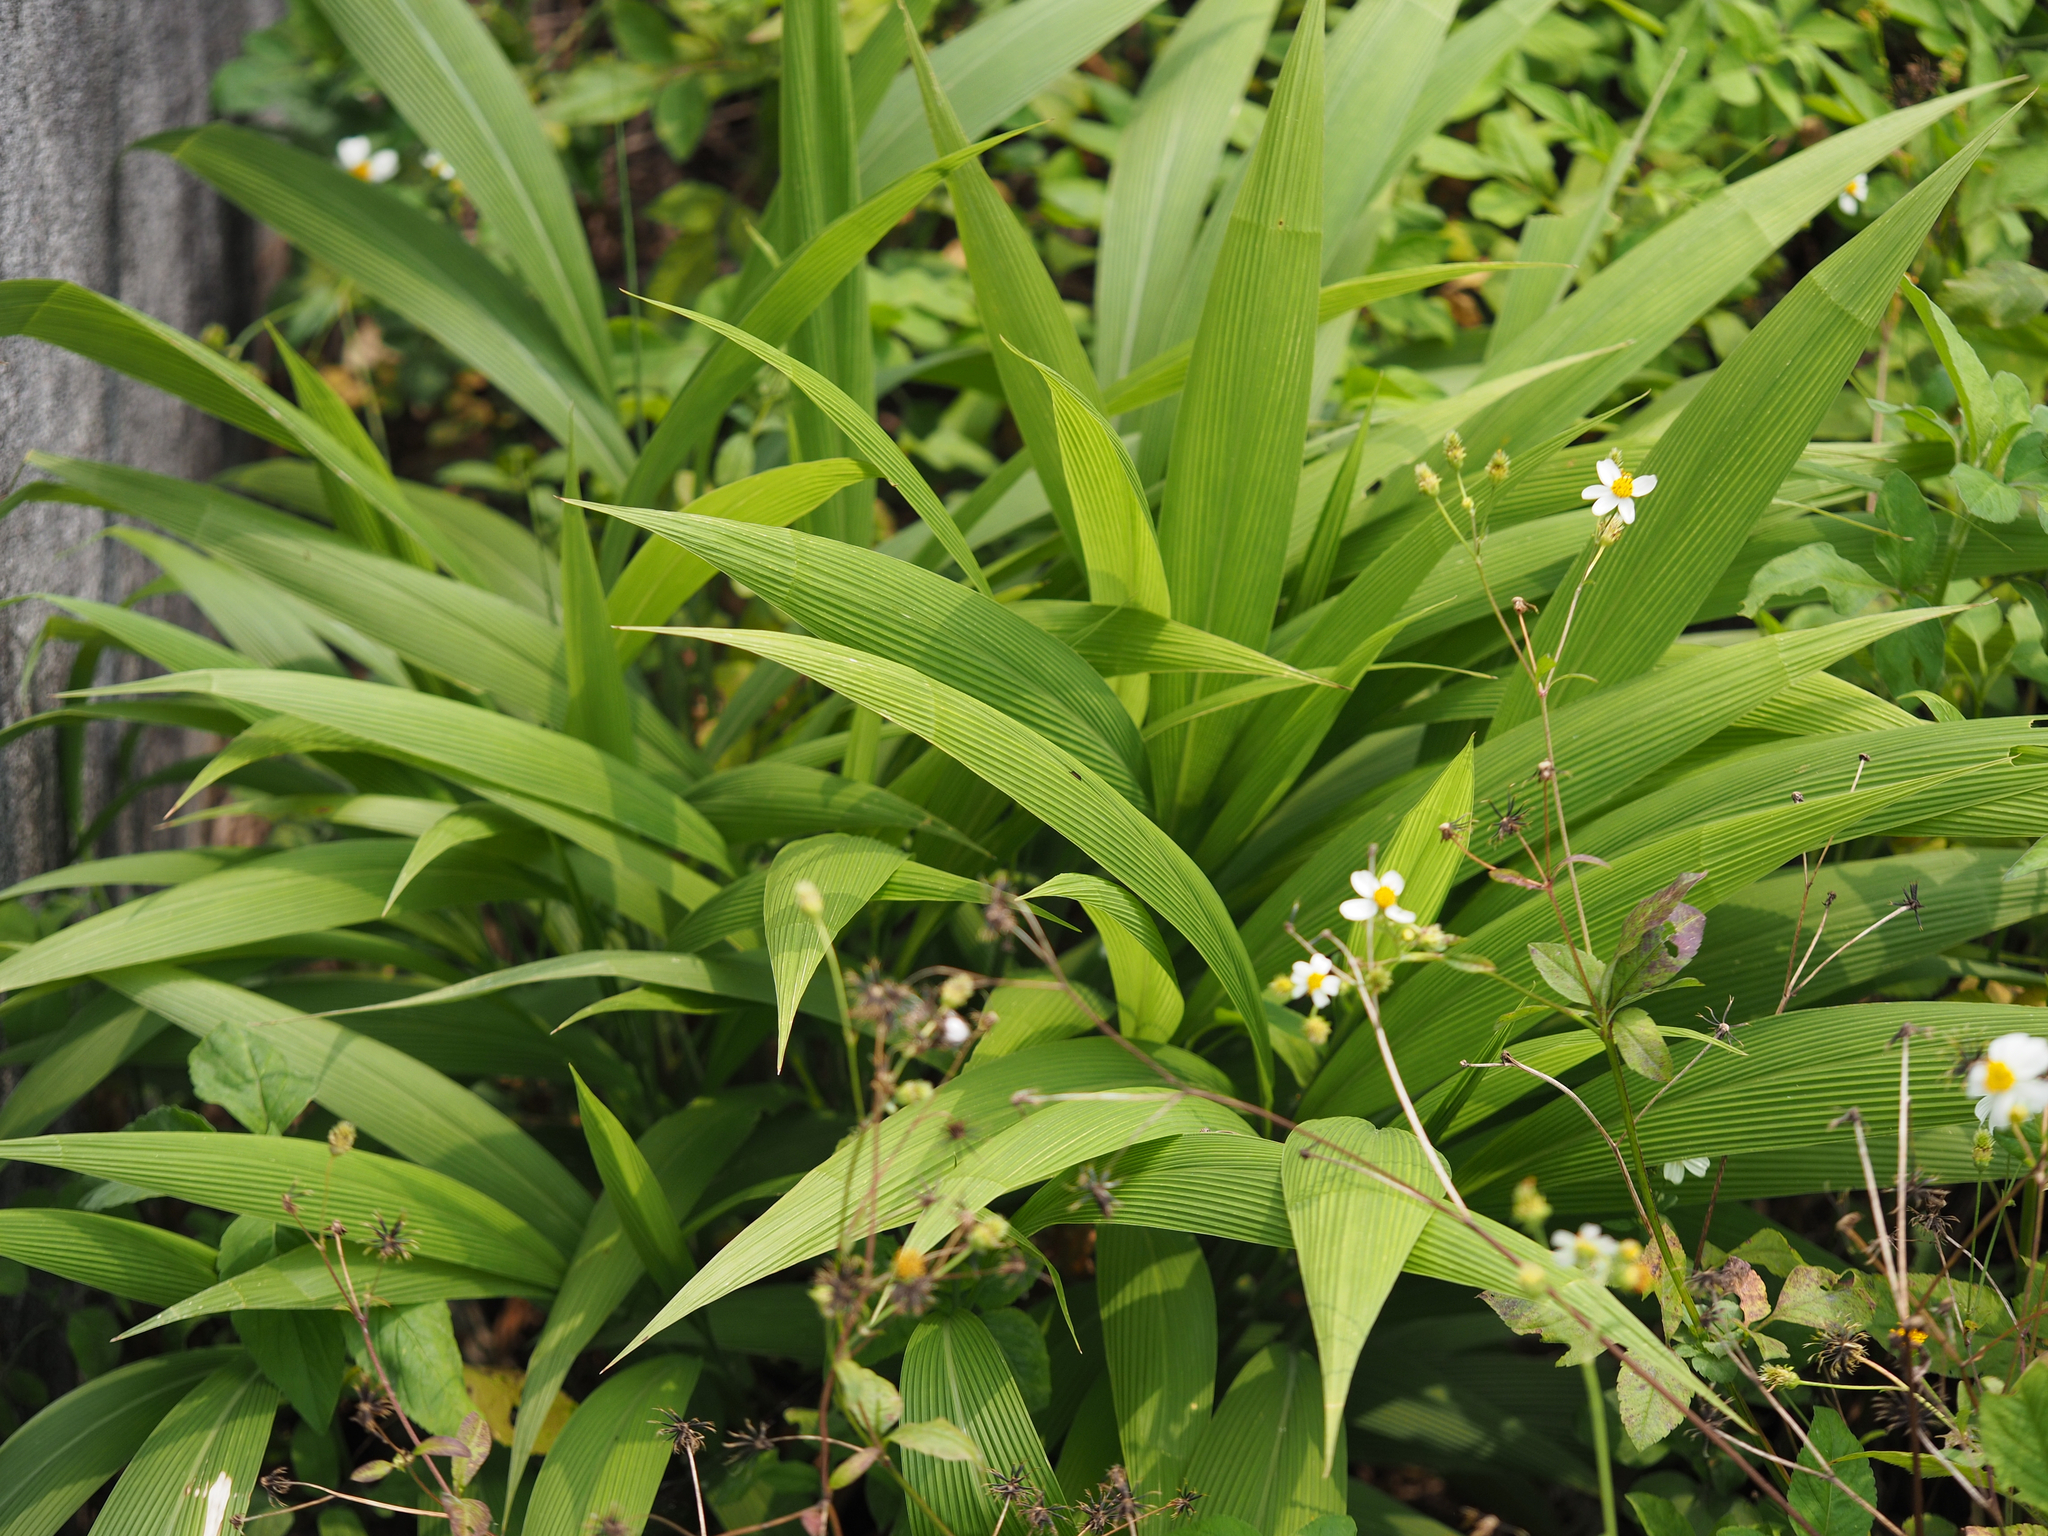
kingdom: Plantae
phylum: Tracheophyta
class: Liliopsida
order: Poales
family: Poaceae
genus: Setaria
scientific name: Setaria palmifolia
